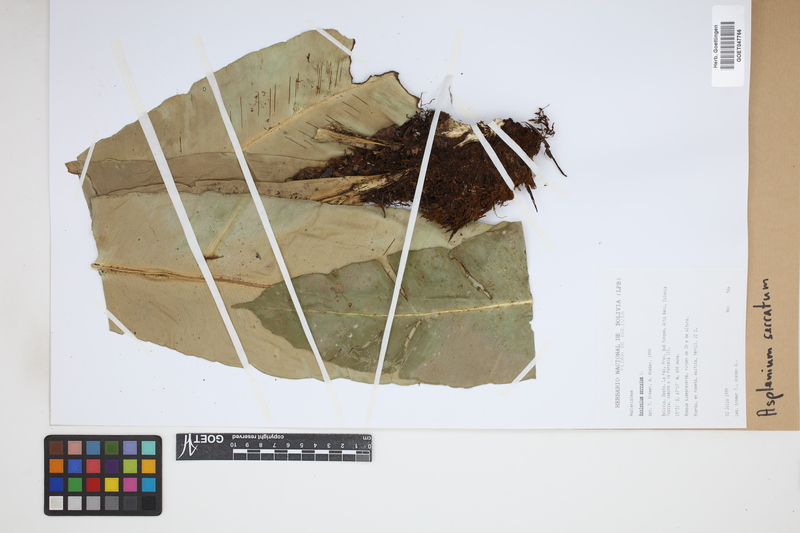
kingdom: Plantae
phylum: Tracheophyta
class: Polypodiopsida
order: Polypodiales
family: Aspleniaceae
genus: Asplenium
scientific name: Asplenium serratum
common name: Wild birdnest fern
